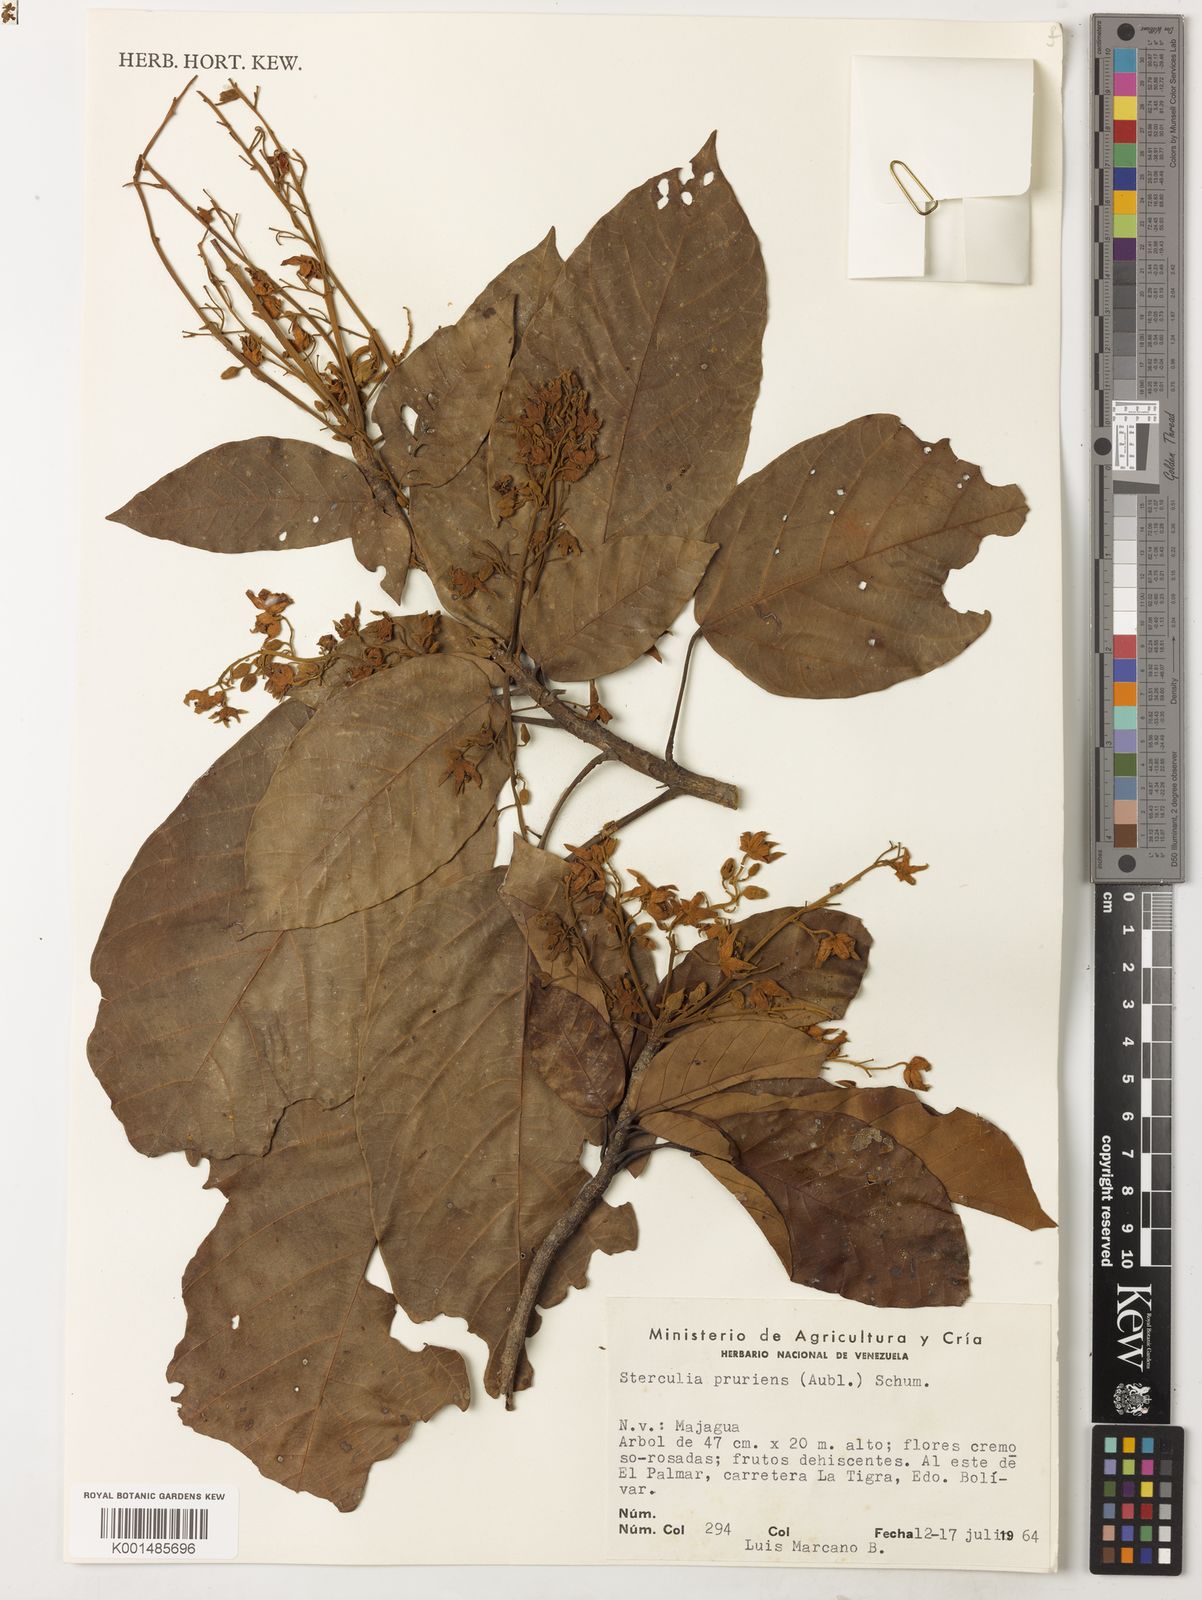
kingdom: Plantae
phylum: Tracheophyta
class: Magnoliopsida
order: Malvales
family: Malvaceae
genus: Sterculia
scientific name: Sterculia pruriens
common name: Grand mahot
